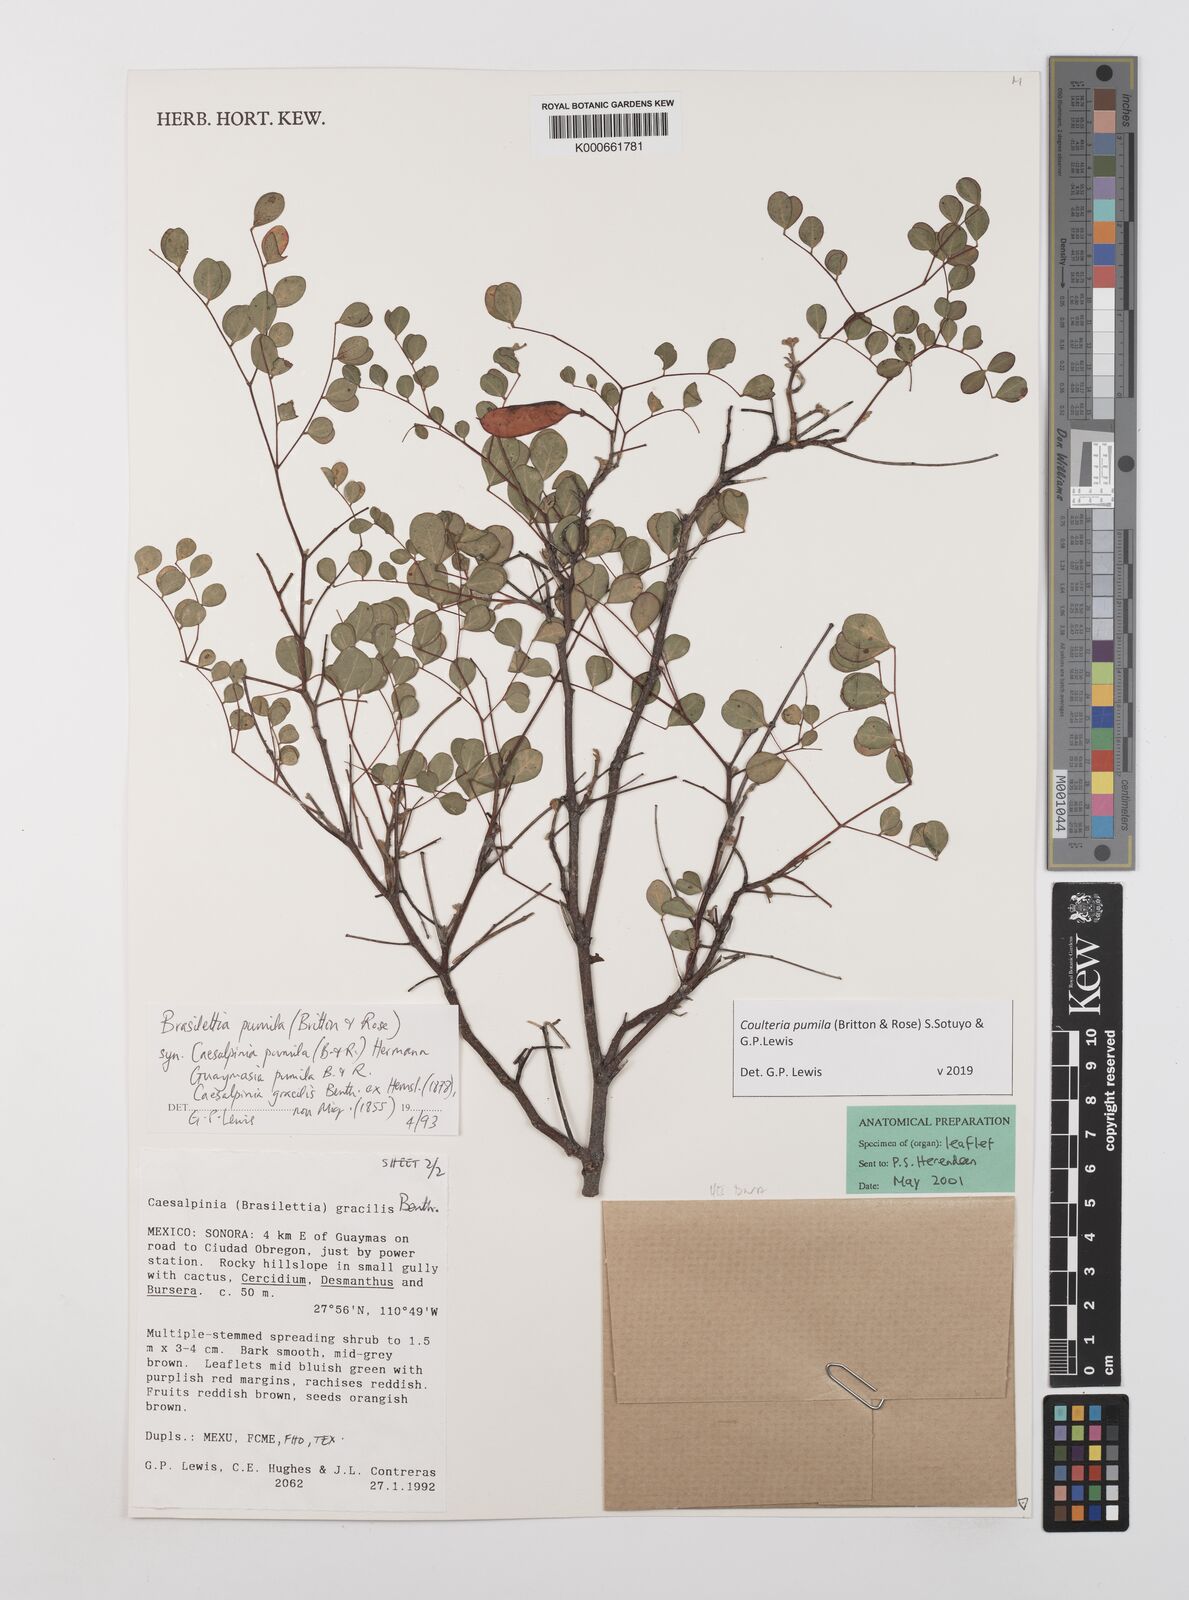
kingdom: Plantae
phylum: Tracheophyta
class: Magnoliopsida
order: Fabales
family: Fabaceae
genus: Coulteria
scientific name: Coulteria
